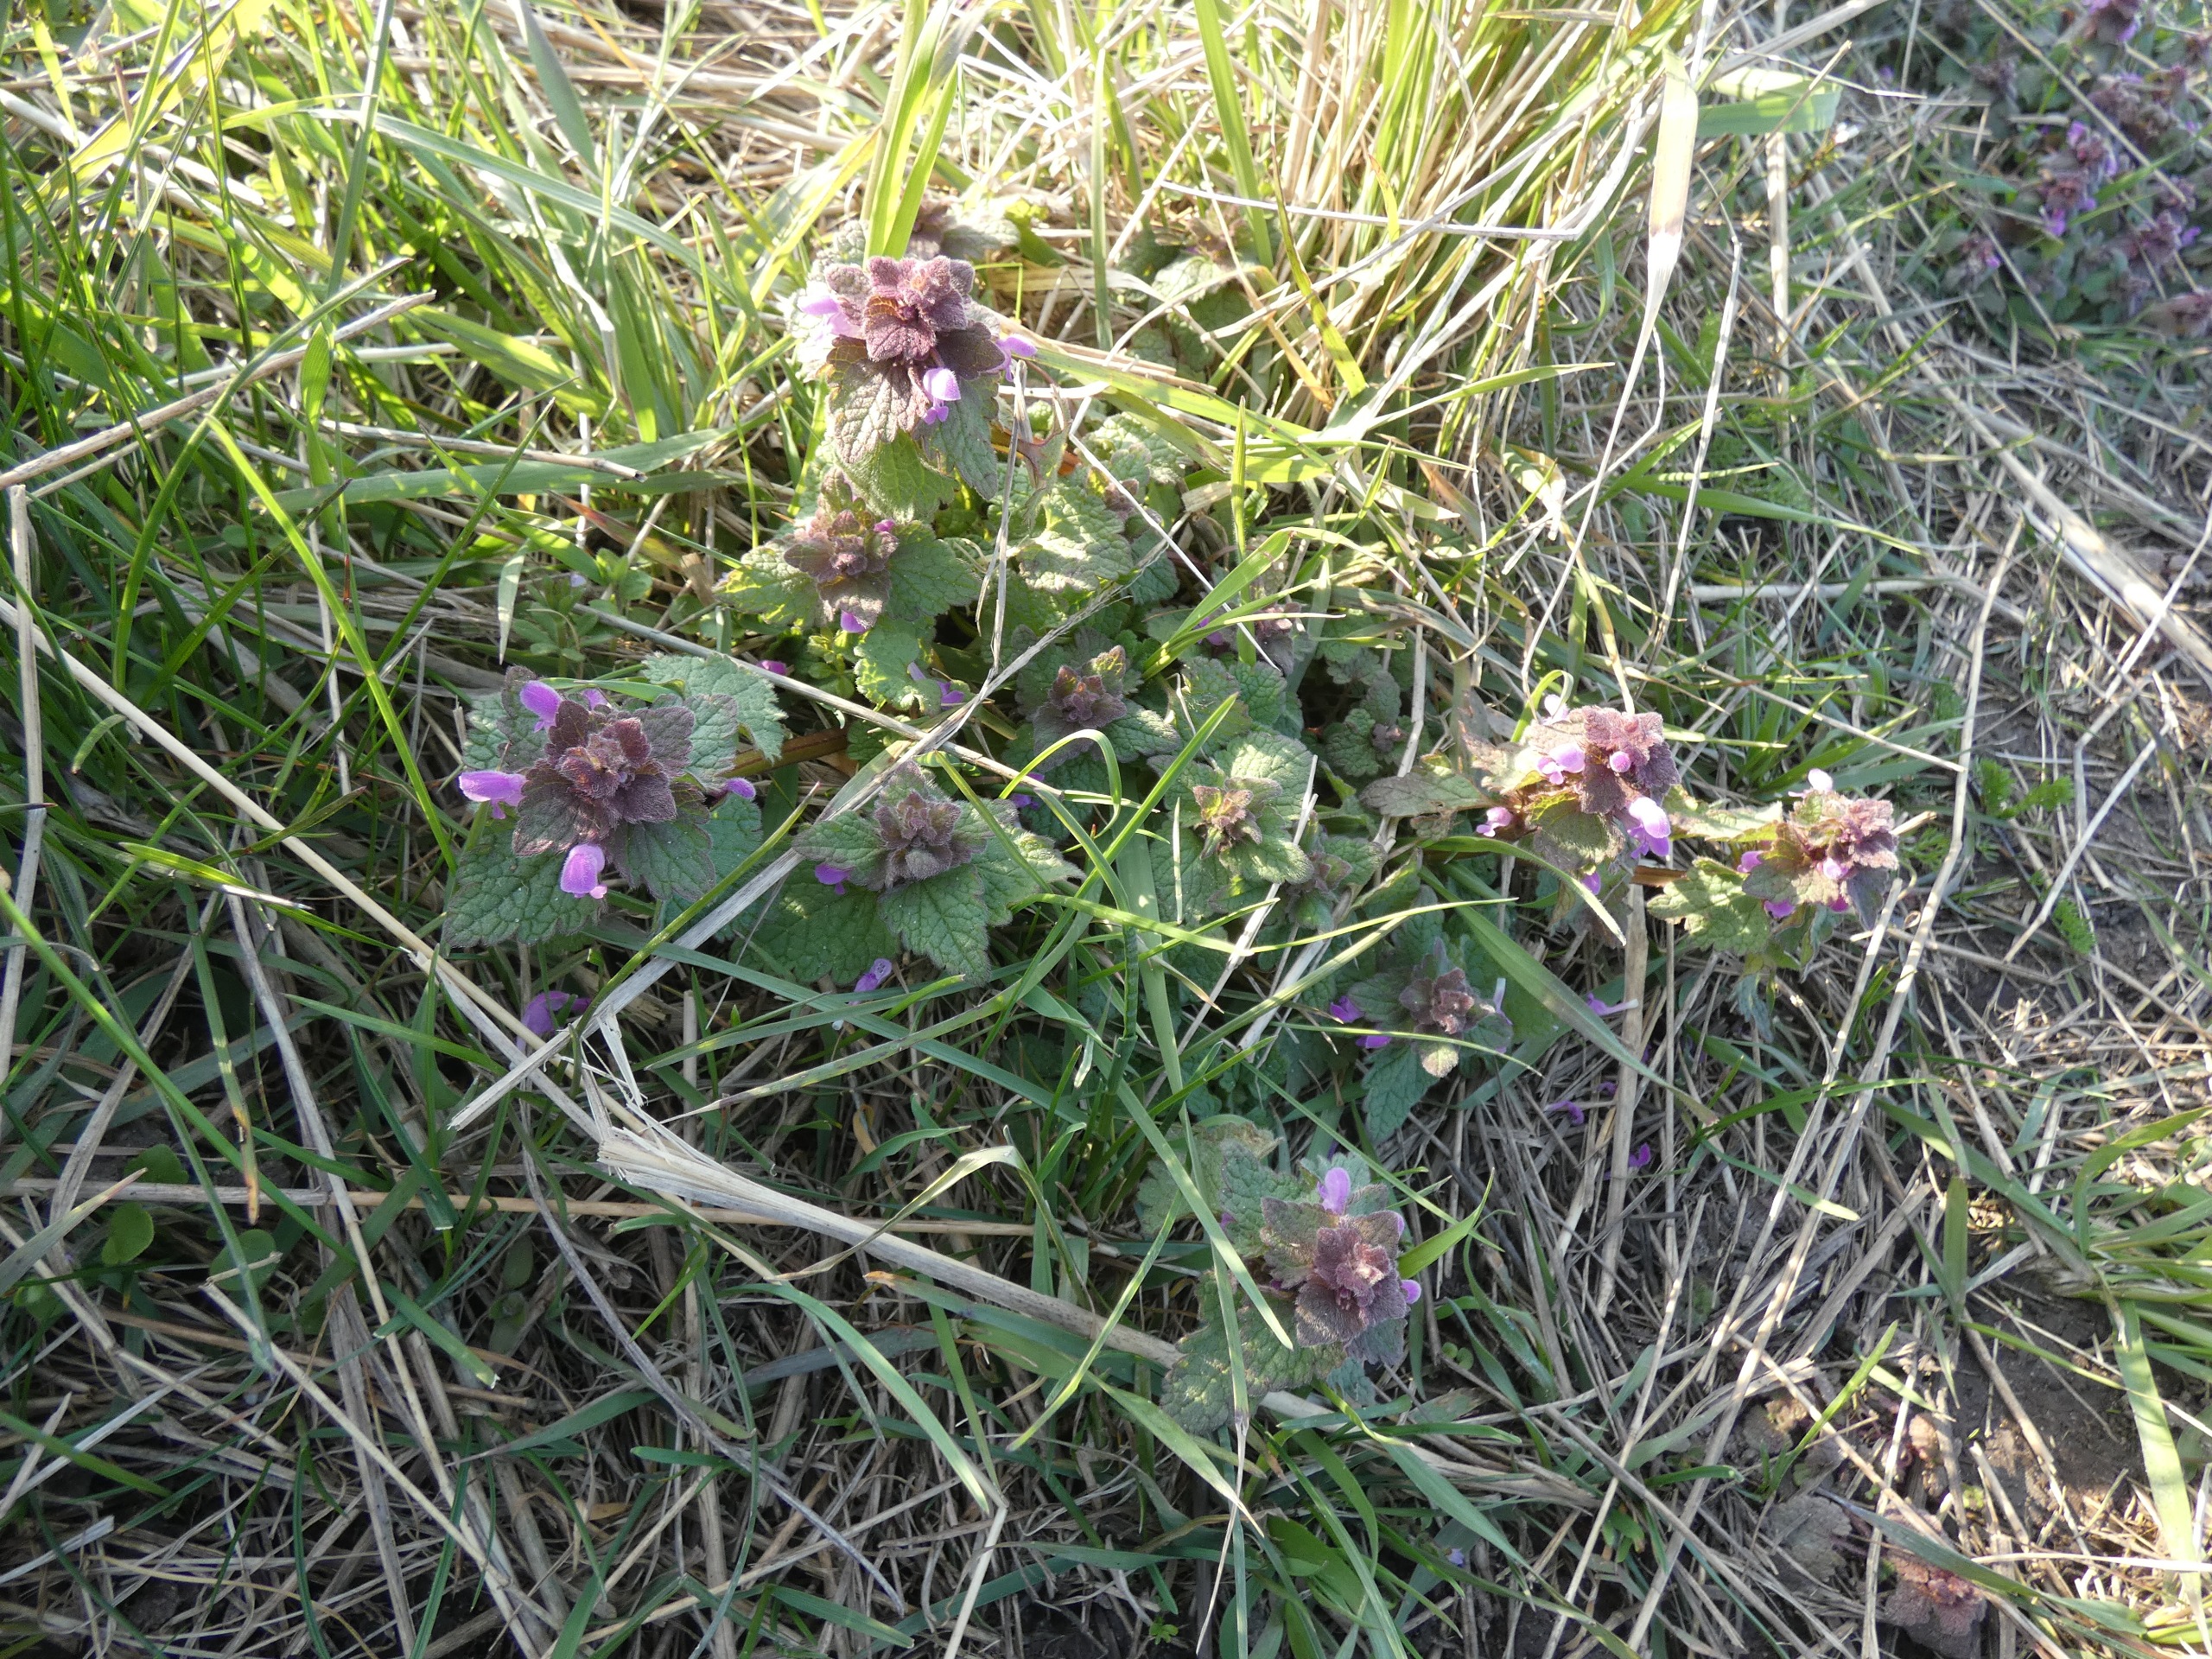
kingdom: Plantae
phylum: Tracheophyta
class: Magnoliopsida
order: Lamiales
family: Lamiaceae
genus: Lamium
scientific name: Lamium purpureum
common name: Rød tvetand
